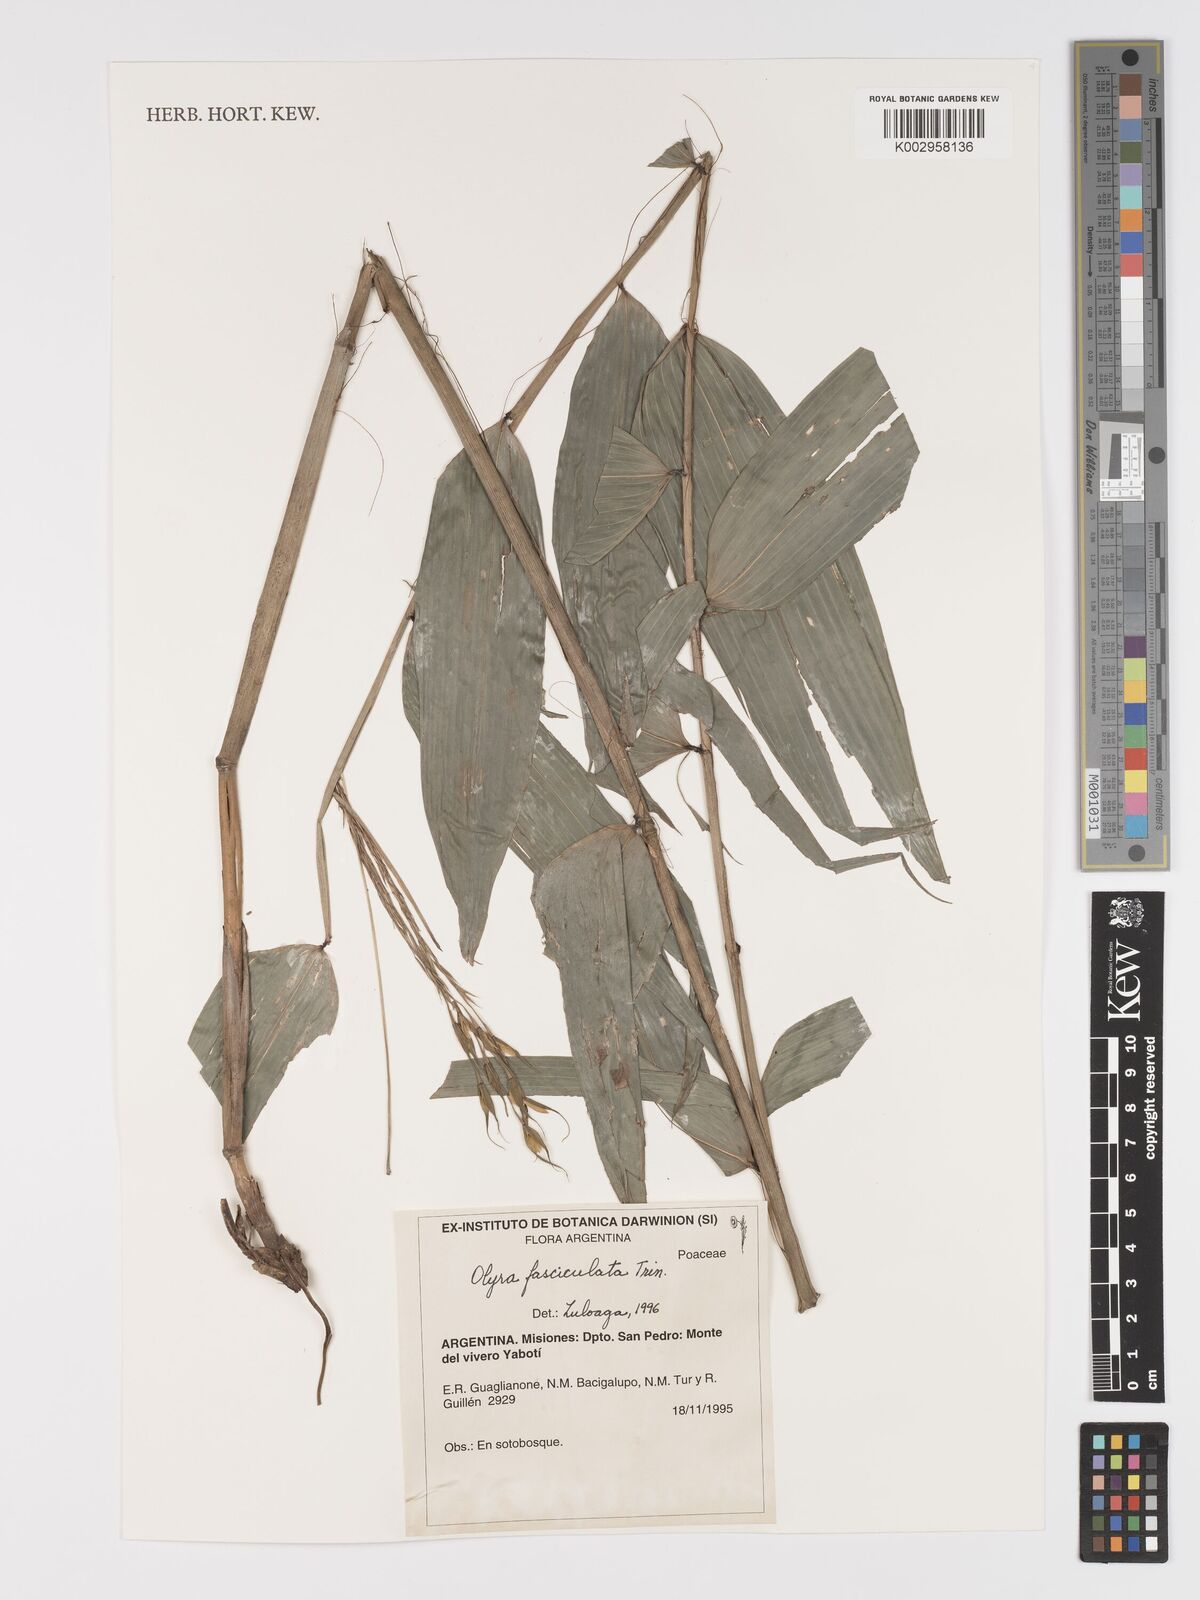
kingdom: Plantae
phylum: Tracheophyta
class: Liliopsida
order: Poales
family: Poaceae
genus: Olyra
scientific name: Olyra fasciculata
